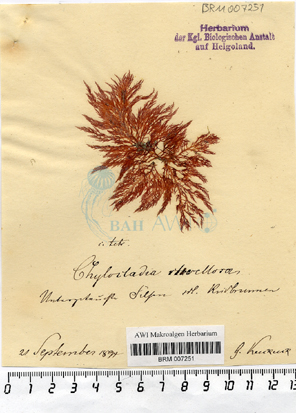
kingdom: Plantae
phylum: Rhodophyta
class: Florideophyceae
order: Rhodymeniales
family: Lomentariaceae
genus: Lomentaria
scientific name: Lomentaria clavellosa
